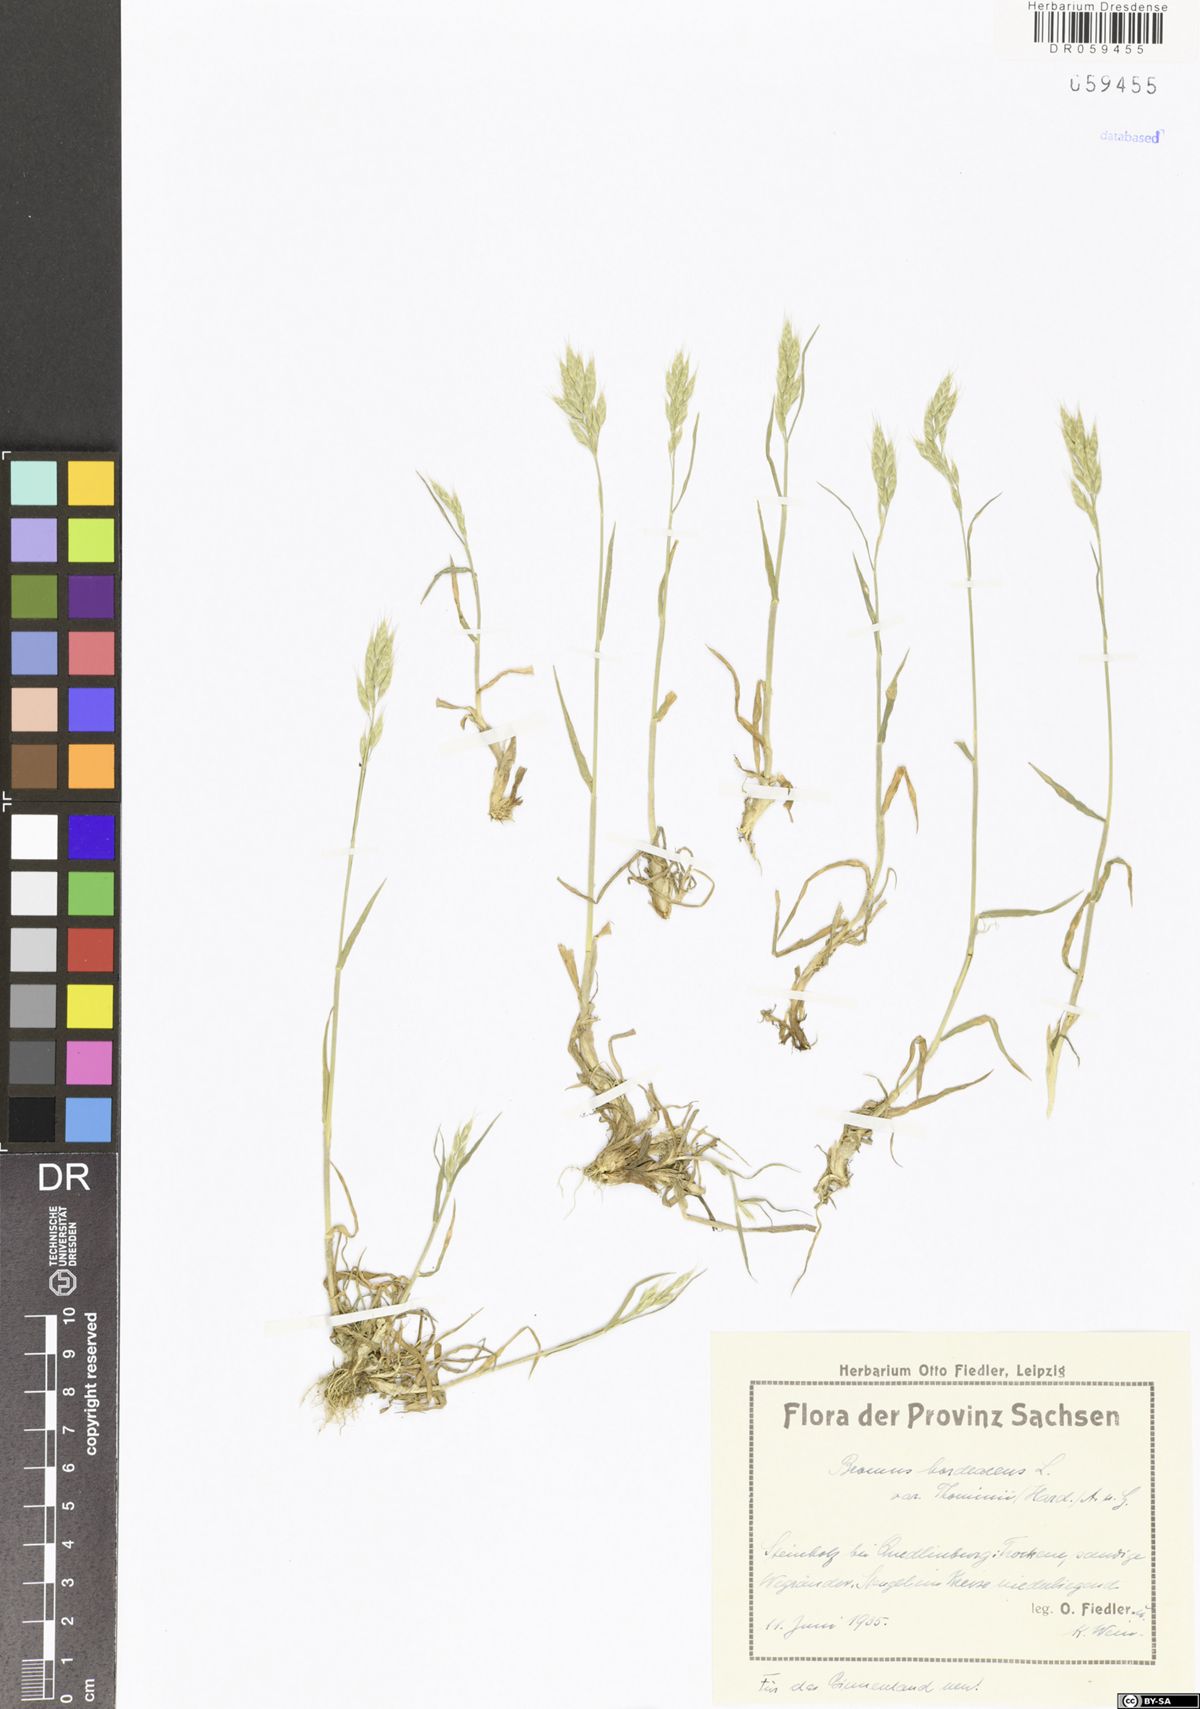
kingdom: Plantae
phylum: Tracheophyta
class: Liliopsida
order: Poales
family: Poaceae
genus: Bromus
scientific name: Bromus hordeaceus
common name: Soft brome
